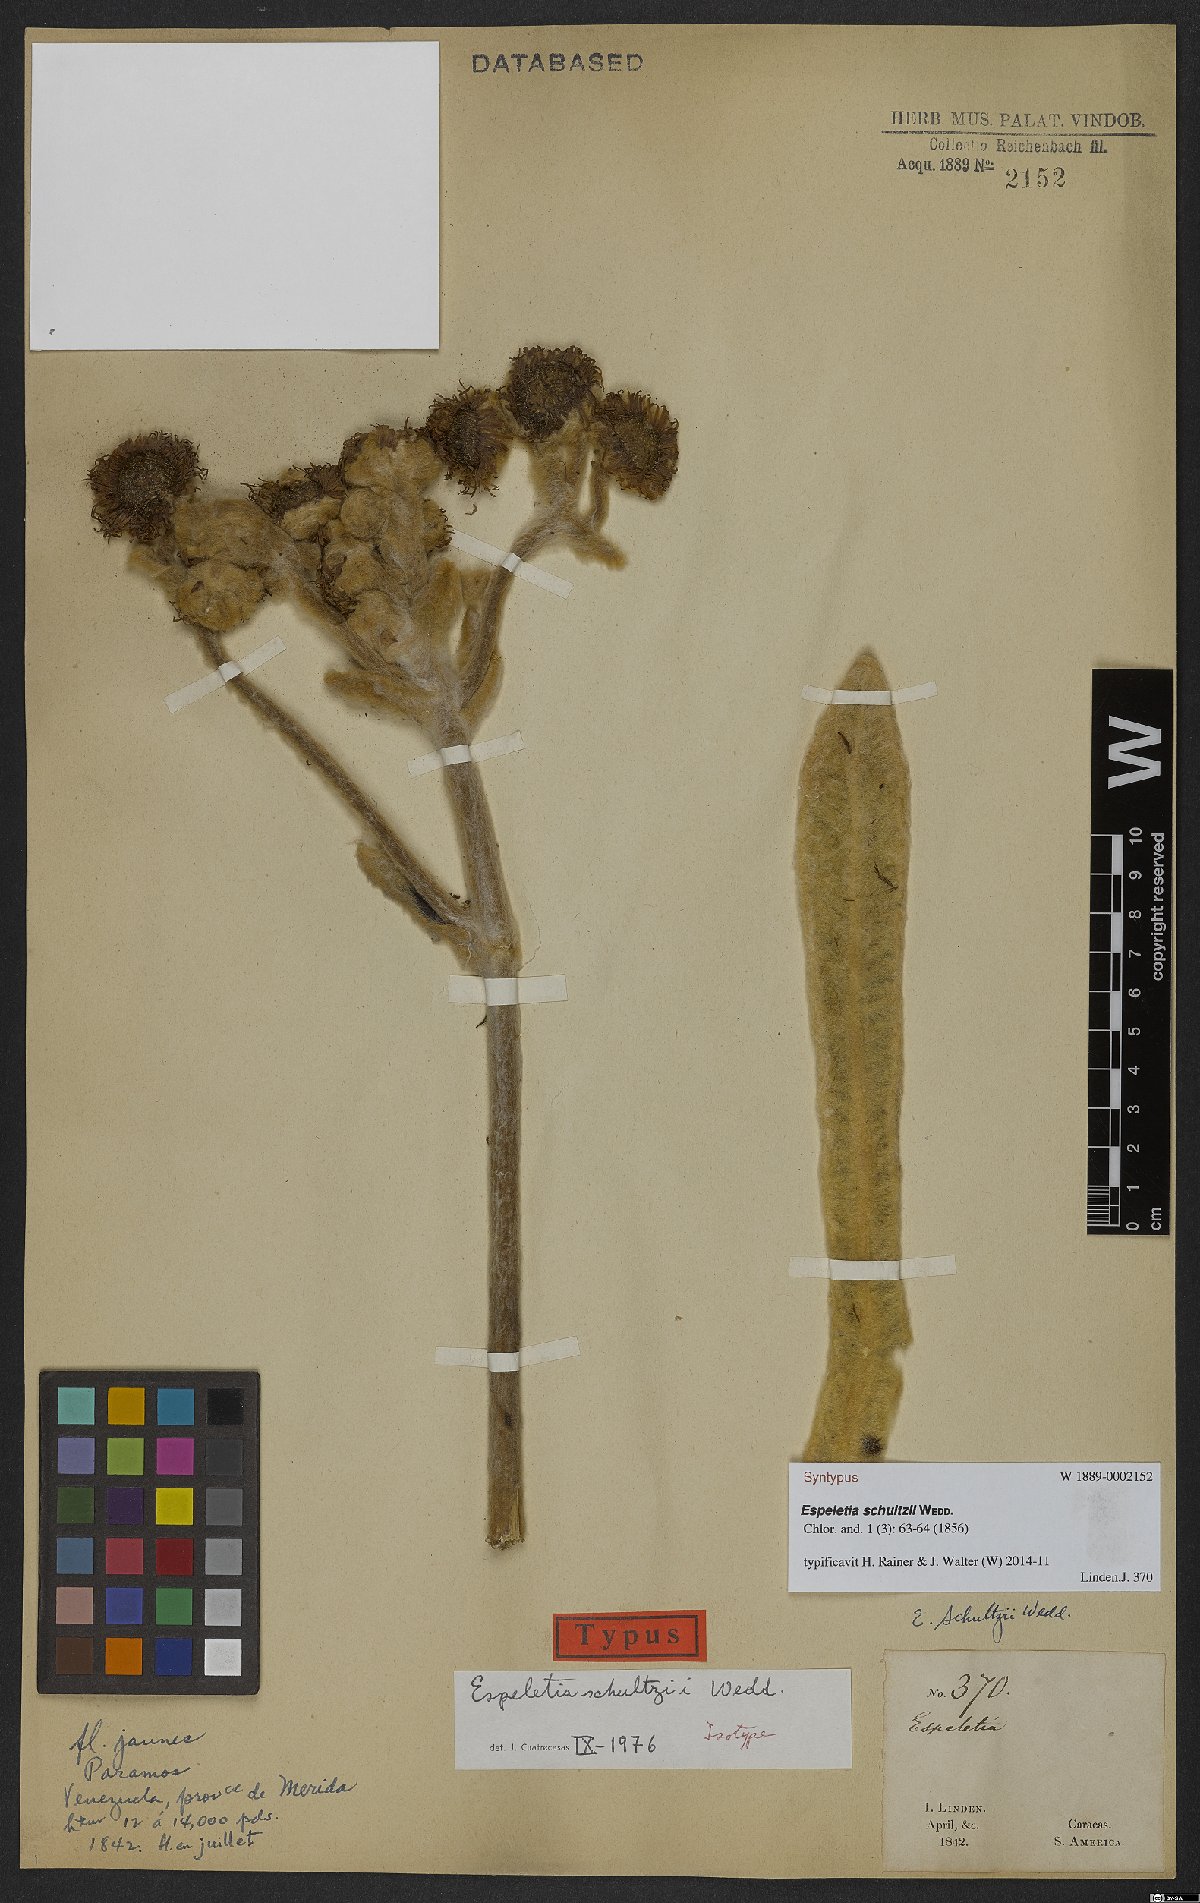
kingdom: Plantae
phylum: Tracheophyta
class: Magnoliopsida
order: Asterales
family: Asteraceae
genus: Espeletia
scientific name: Espeletia schultzii
